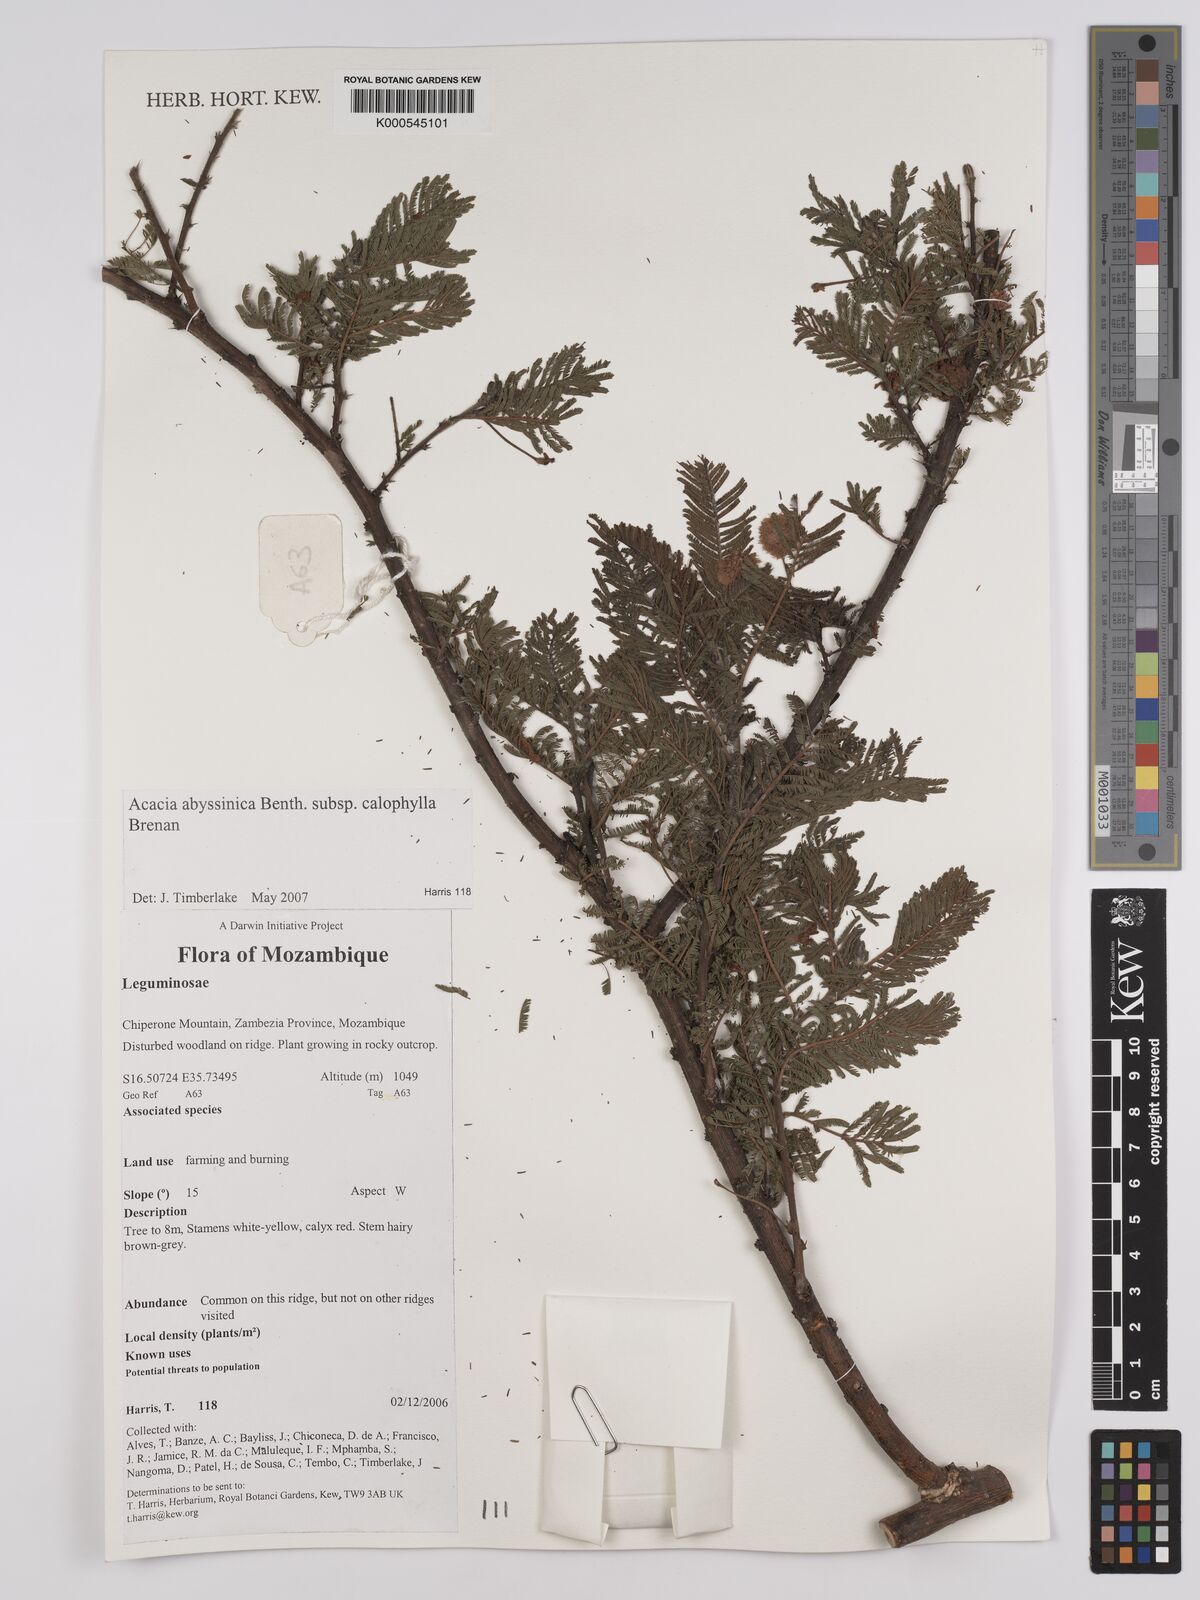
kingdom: Plantae
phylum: Tracheophyta
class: Magnoliopsida
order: Fabales
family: Fabaceae
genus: Vachellia
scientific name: Vachellia abyssinica
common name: Nyanga flat-top
